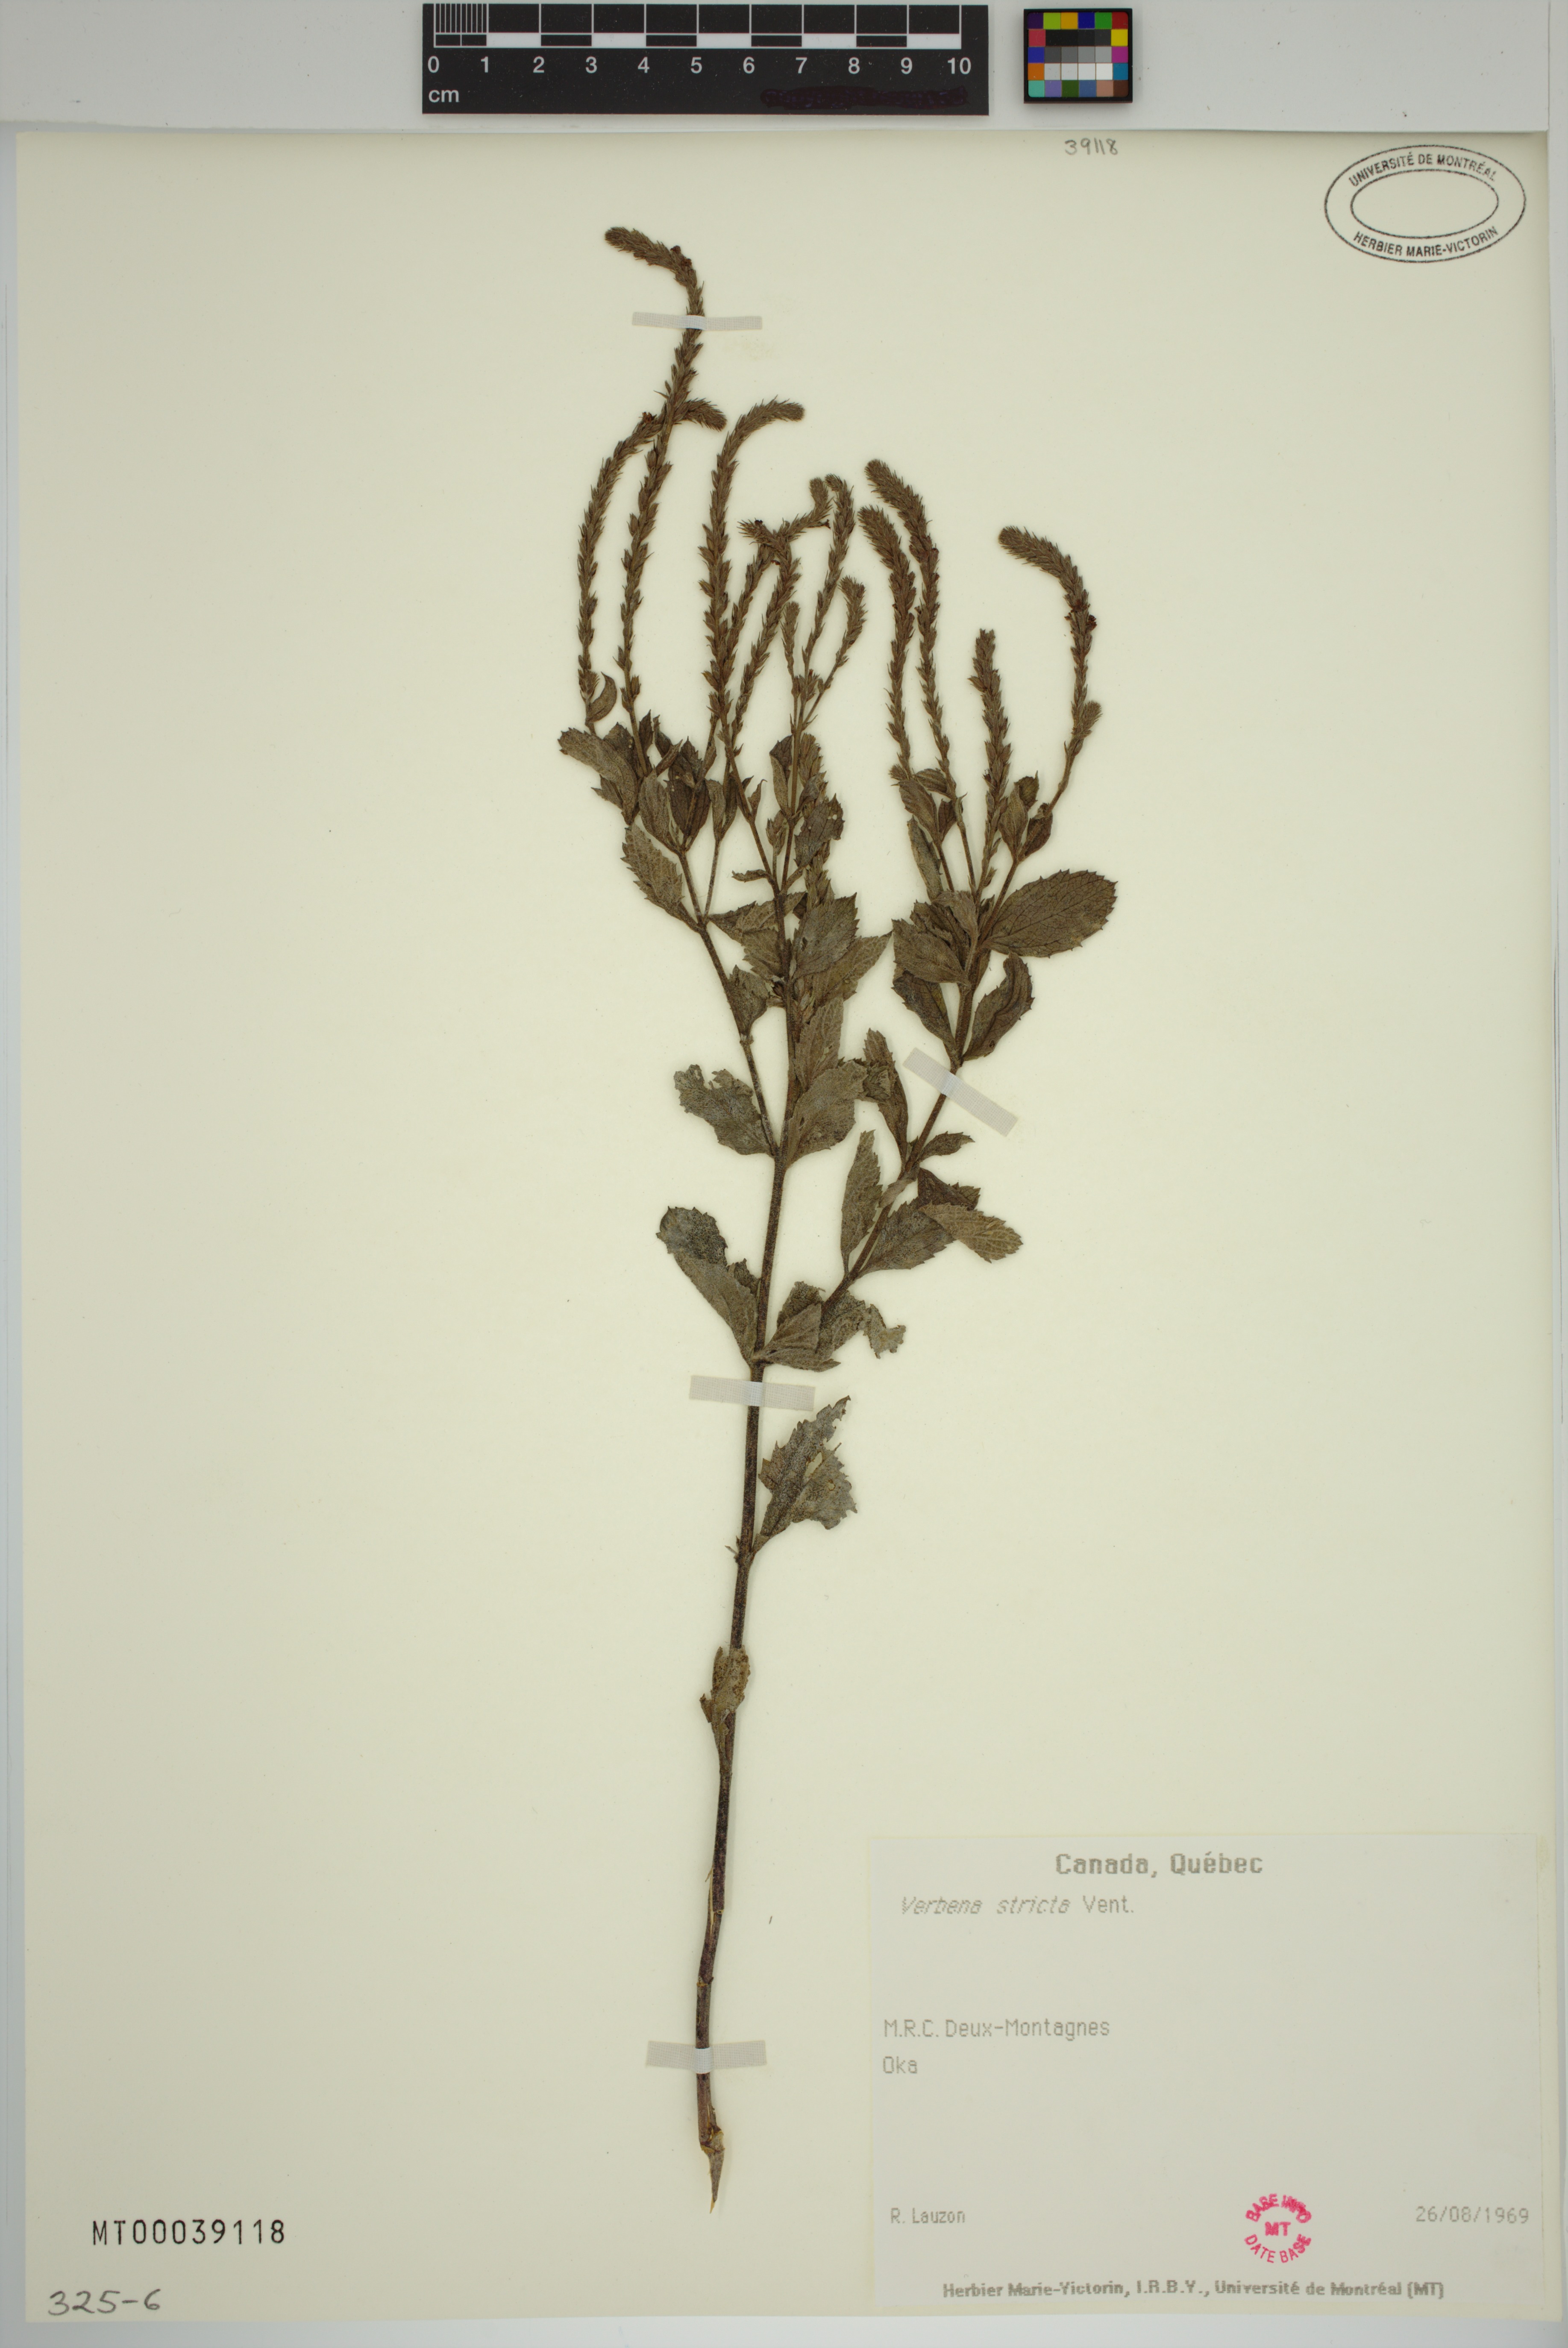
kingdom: Plantae
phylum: Tracheophyta
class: Magnoliopsida
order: Lamiales
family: Verbenaceae
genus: Verbena
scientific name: Verbena stricta
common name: Hoary vervain
